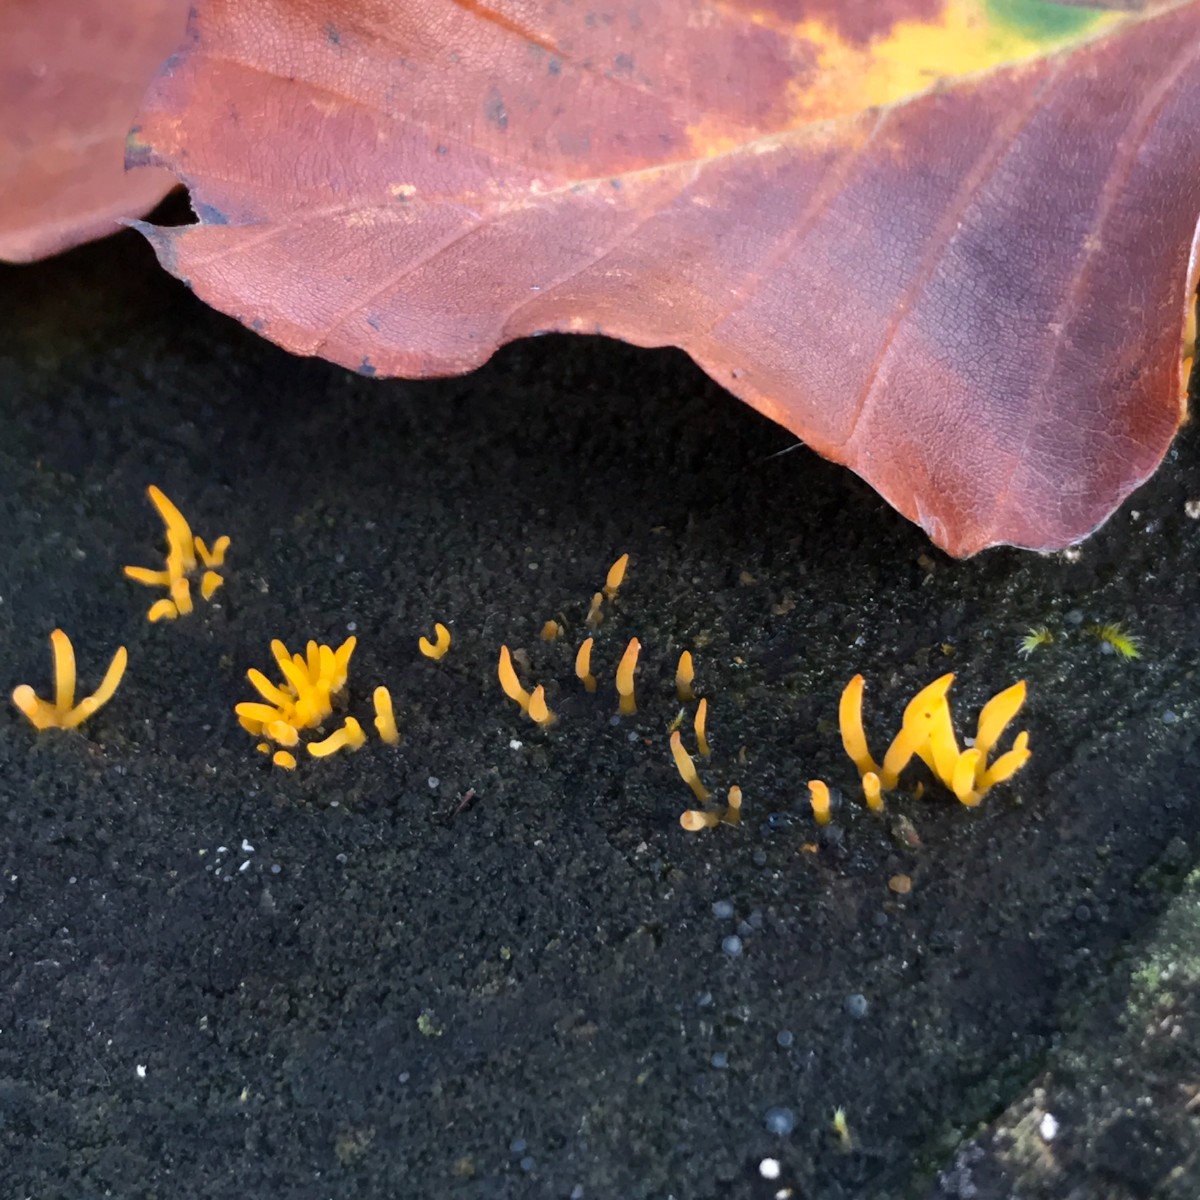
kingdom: Fungi
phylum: Basidiomycota
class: Dacrymycetes
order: Dacrymycetales
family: Dacrymycetaceae
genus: Calocera
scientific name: Calocera cornea
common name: liden guldgaffel
